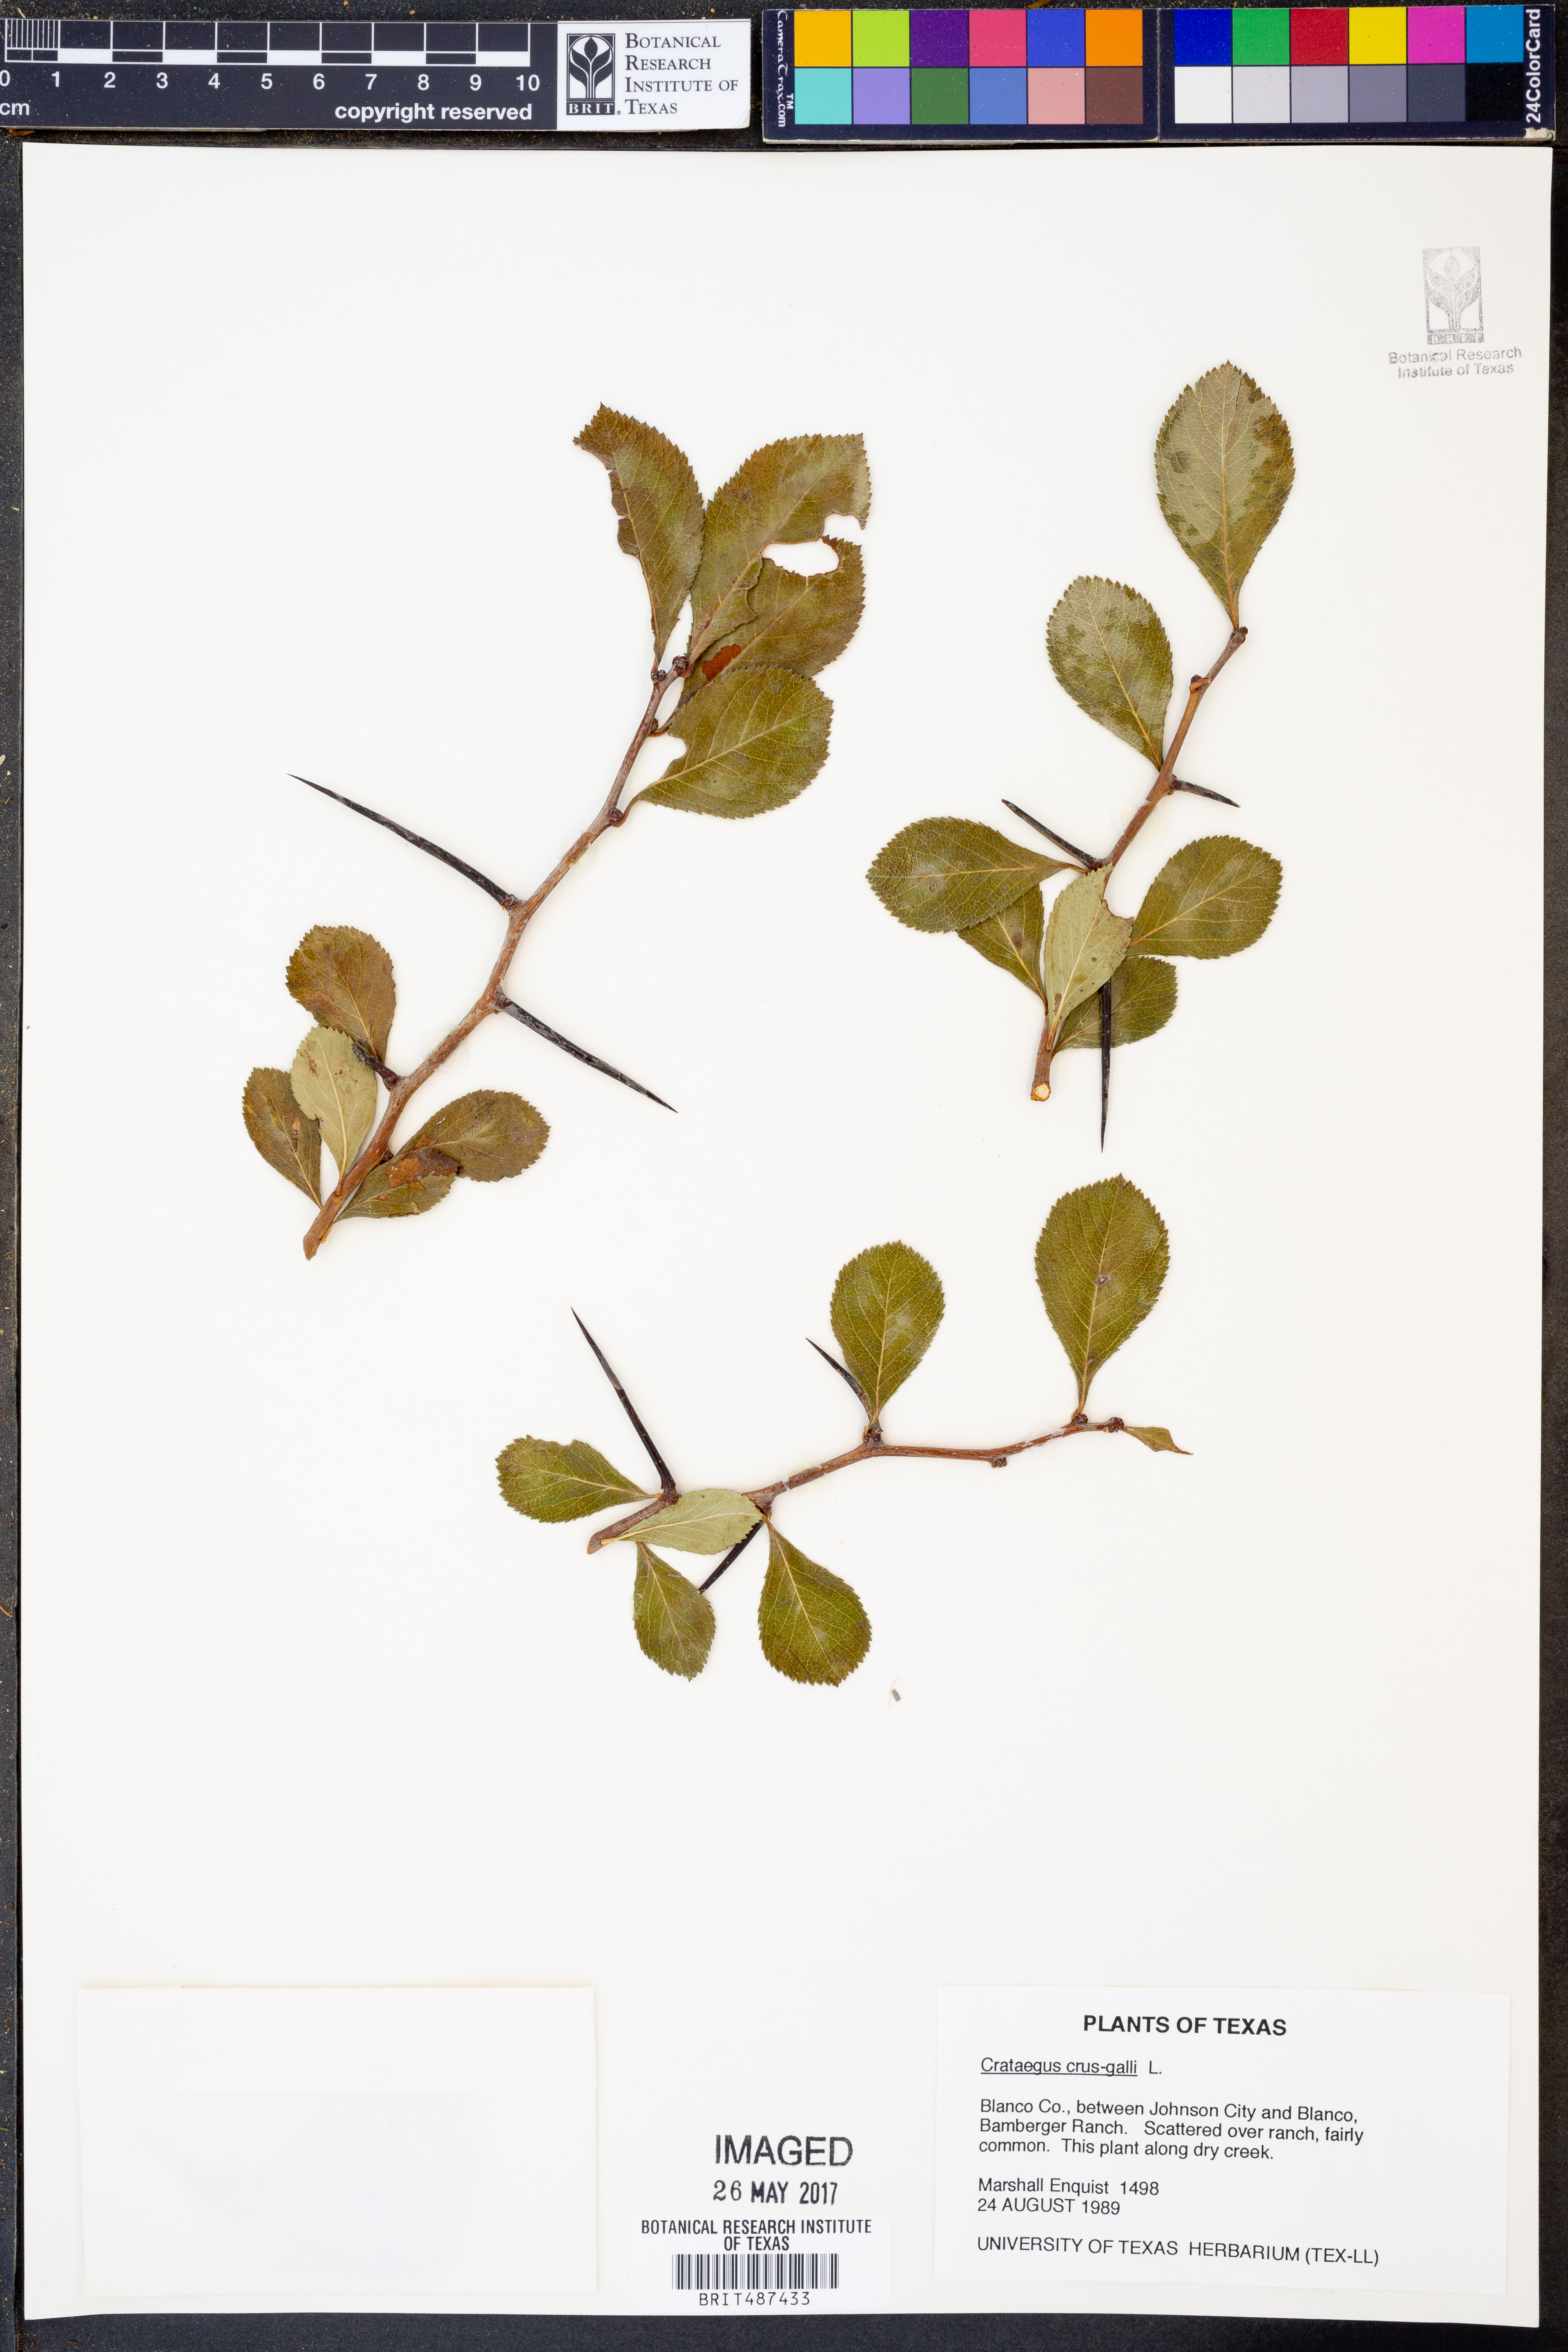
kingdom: Plantae
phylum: Tracheophyta
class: Magnoliopsida
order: Rosales
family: Rosaceae
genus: Crataegus
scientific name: Crataegus crus-galli
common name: Cockspurthorn
